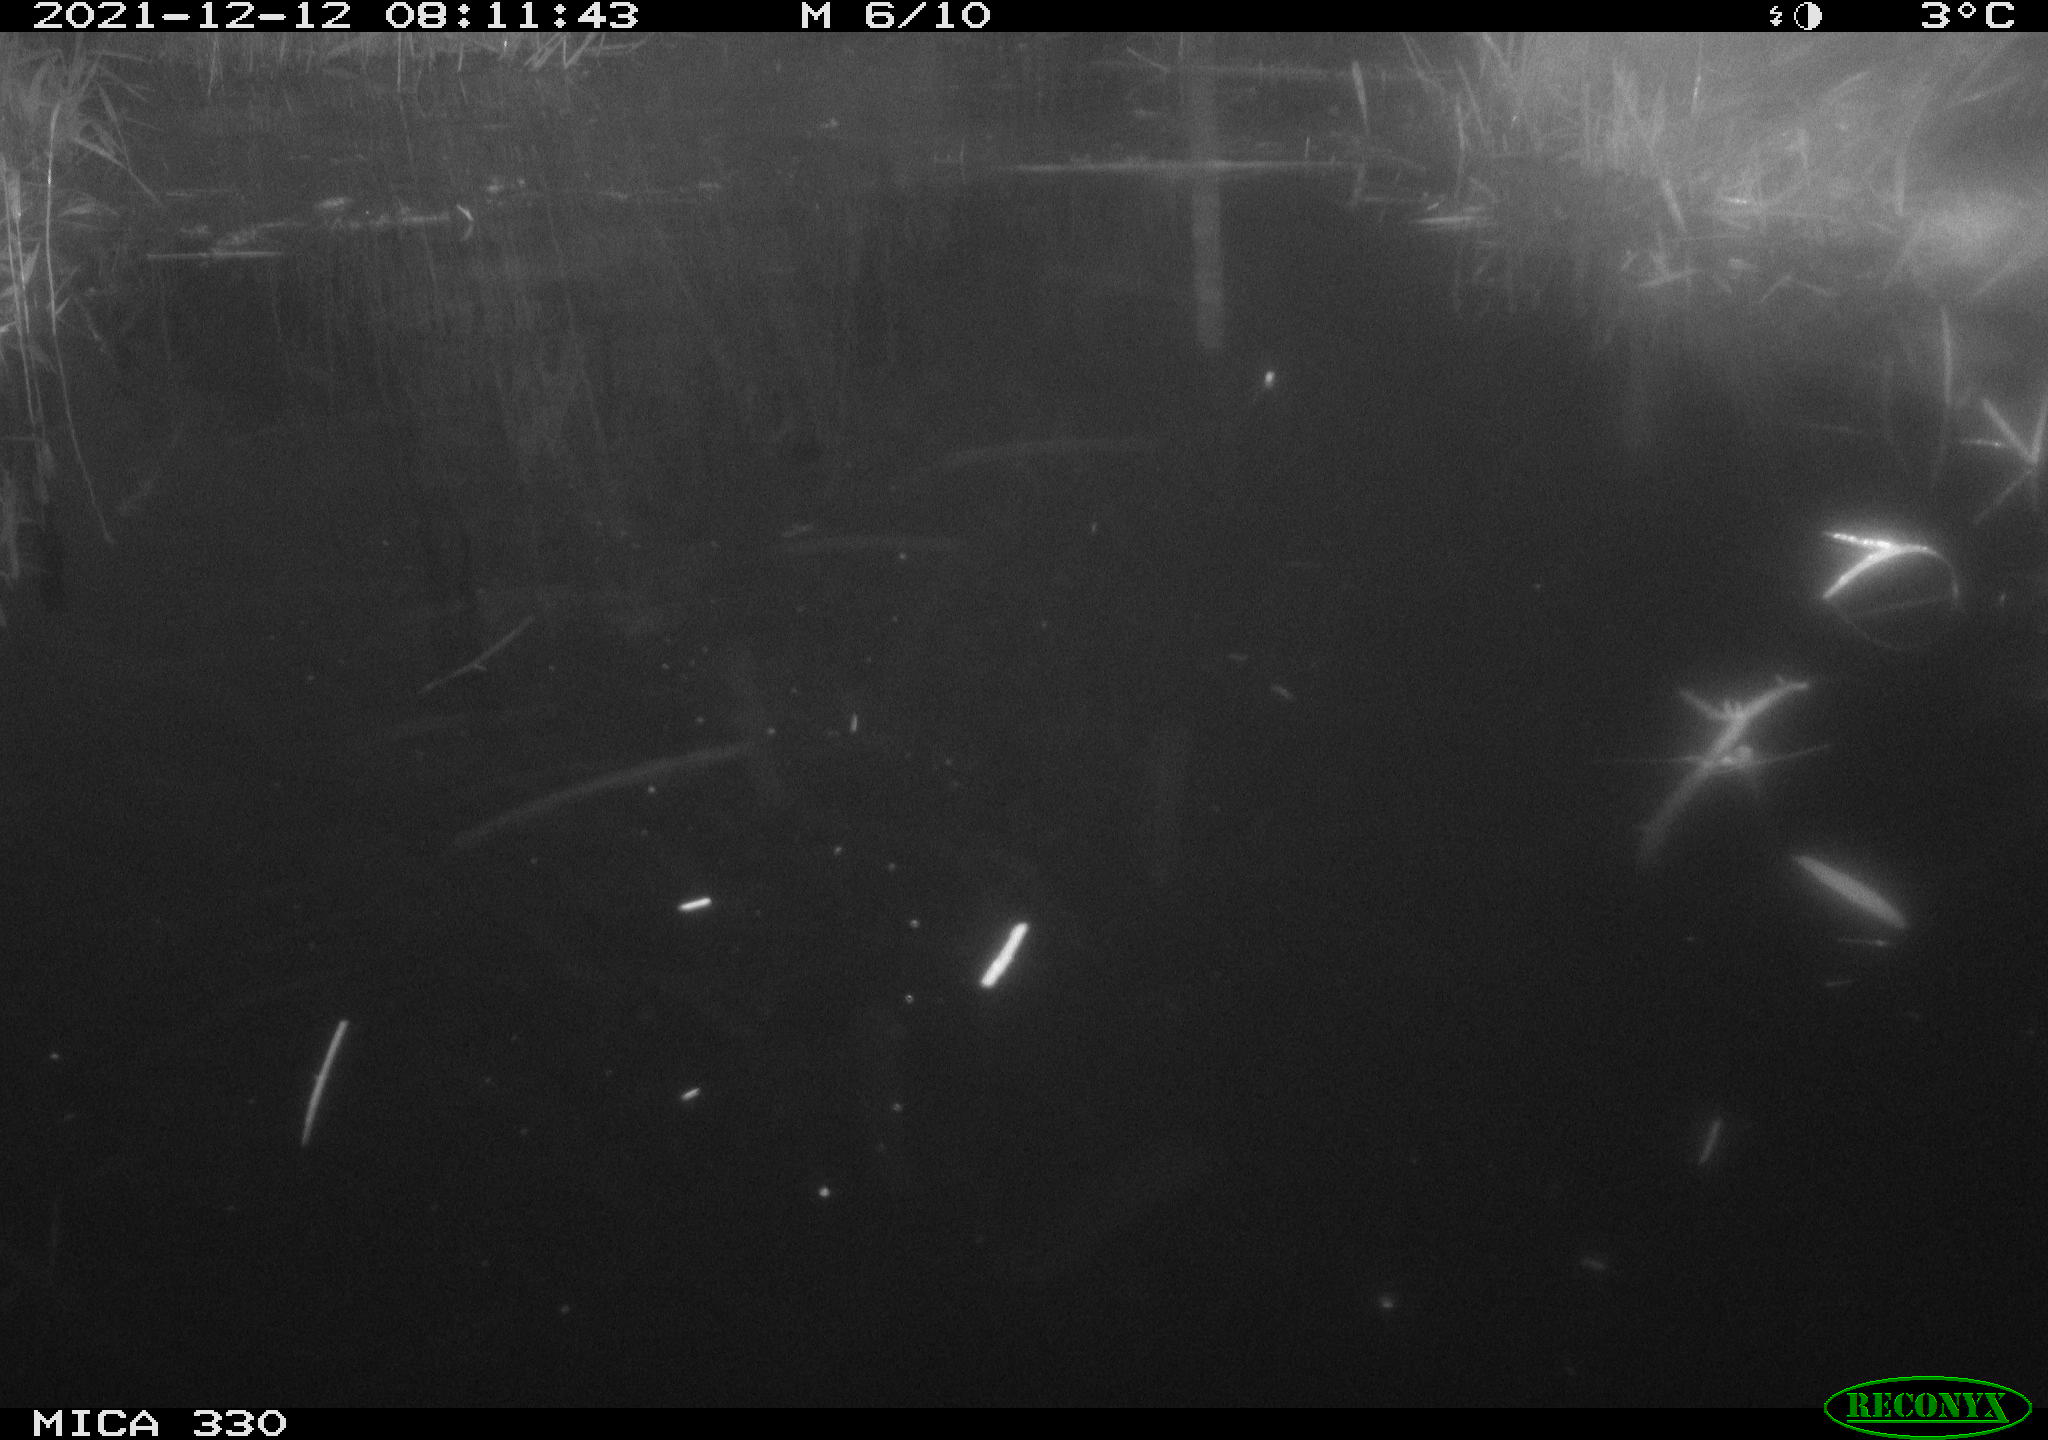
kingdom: Animalia
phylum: Chordata
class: Aves
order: Gruiformes
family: Rallidae
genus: Gallinula
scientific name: Gallinula chloropus
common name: Common moorhen
